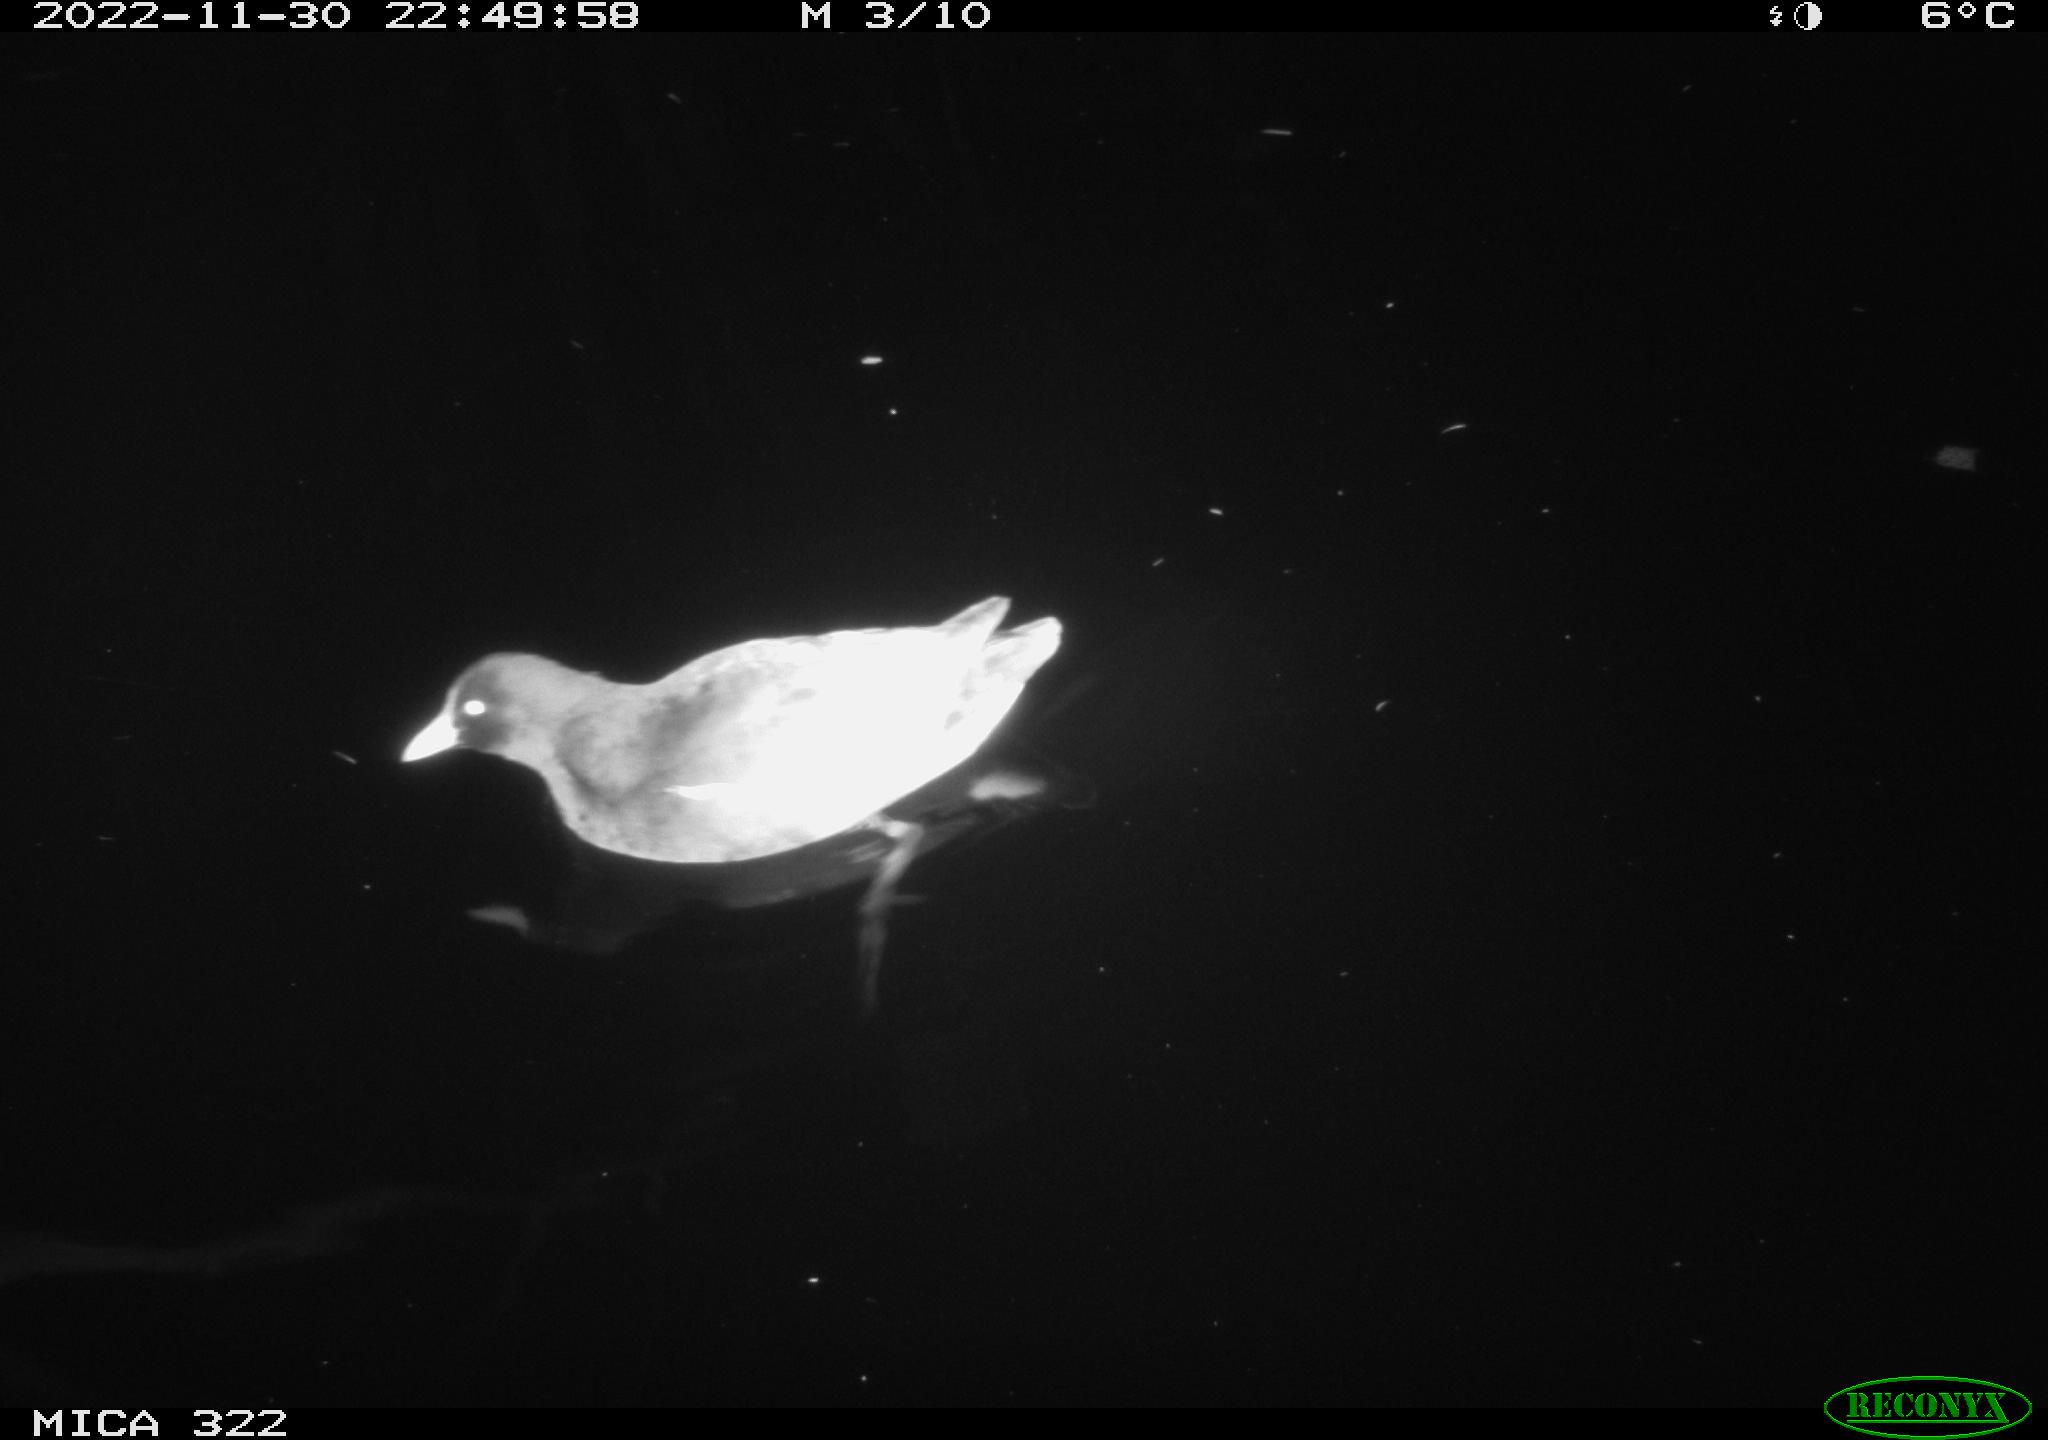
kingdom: Animalia
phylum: Chordata
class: Aves
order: Gruiformes
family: Rallidae
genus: Gallinula
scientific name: Gallinula chloropus
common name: Common moorhen
